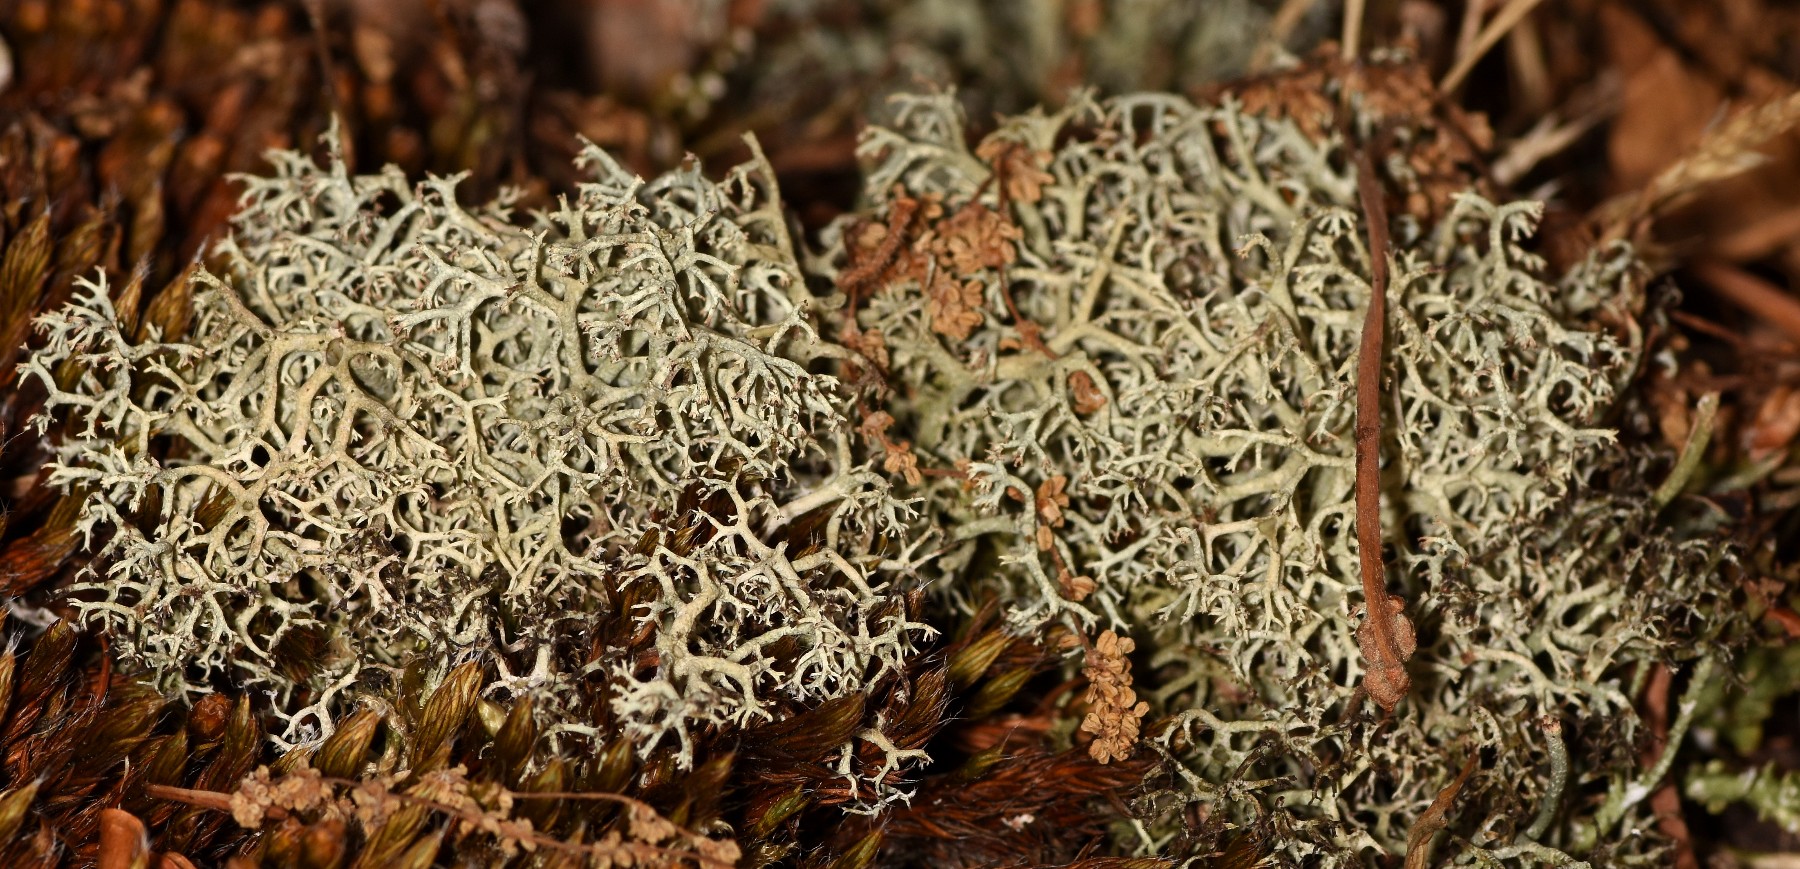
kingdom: Fungi
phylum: Ascomycota
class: Lecanoromycetes
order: Lecanorales
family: Cladoniaceae
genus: Cladonia
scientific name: Cladonia portentosa
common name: hede-rensdyrlav
